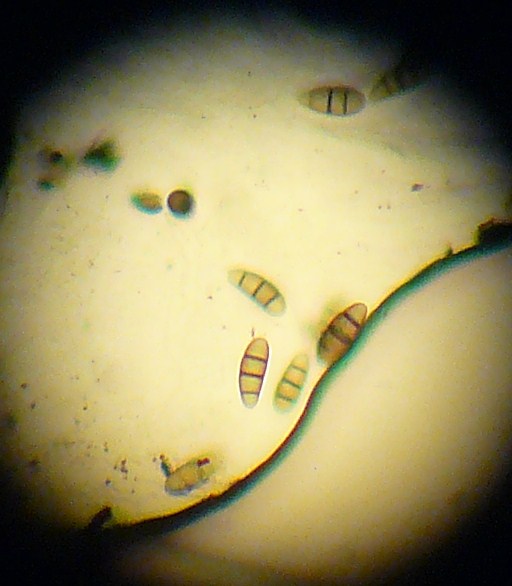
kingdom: Fungi
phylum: Ascomycota
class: Dothideomycetes
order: Hysteriales
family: Hysteriaceae
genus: Hysterium
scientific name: Hysterium pulicare
